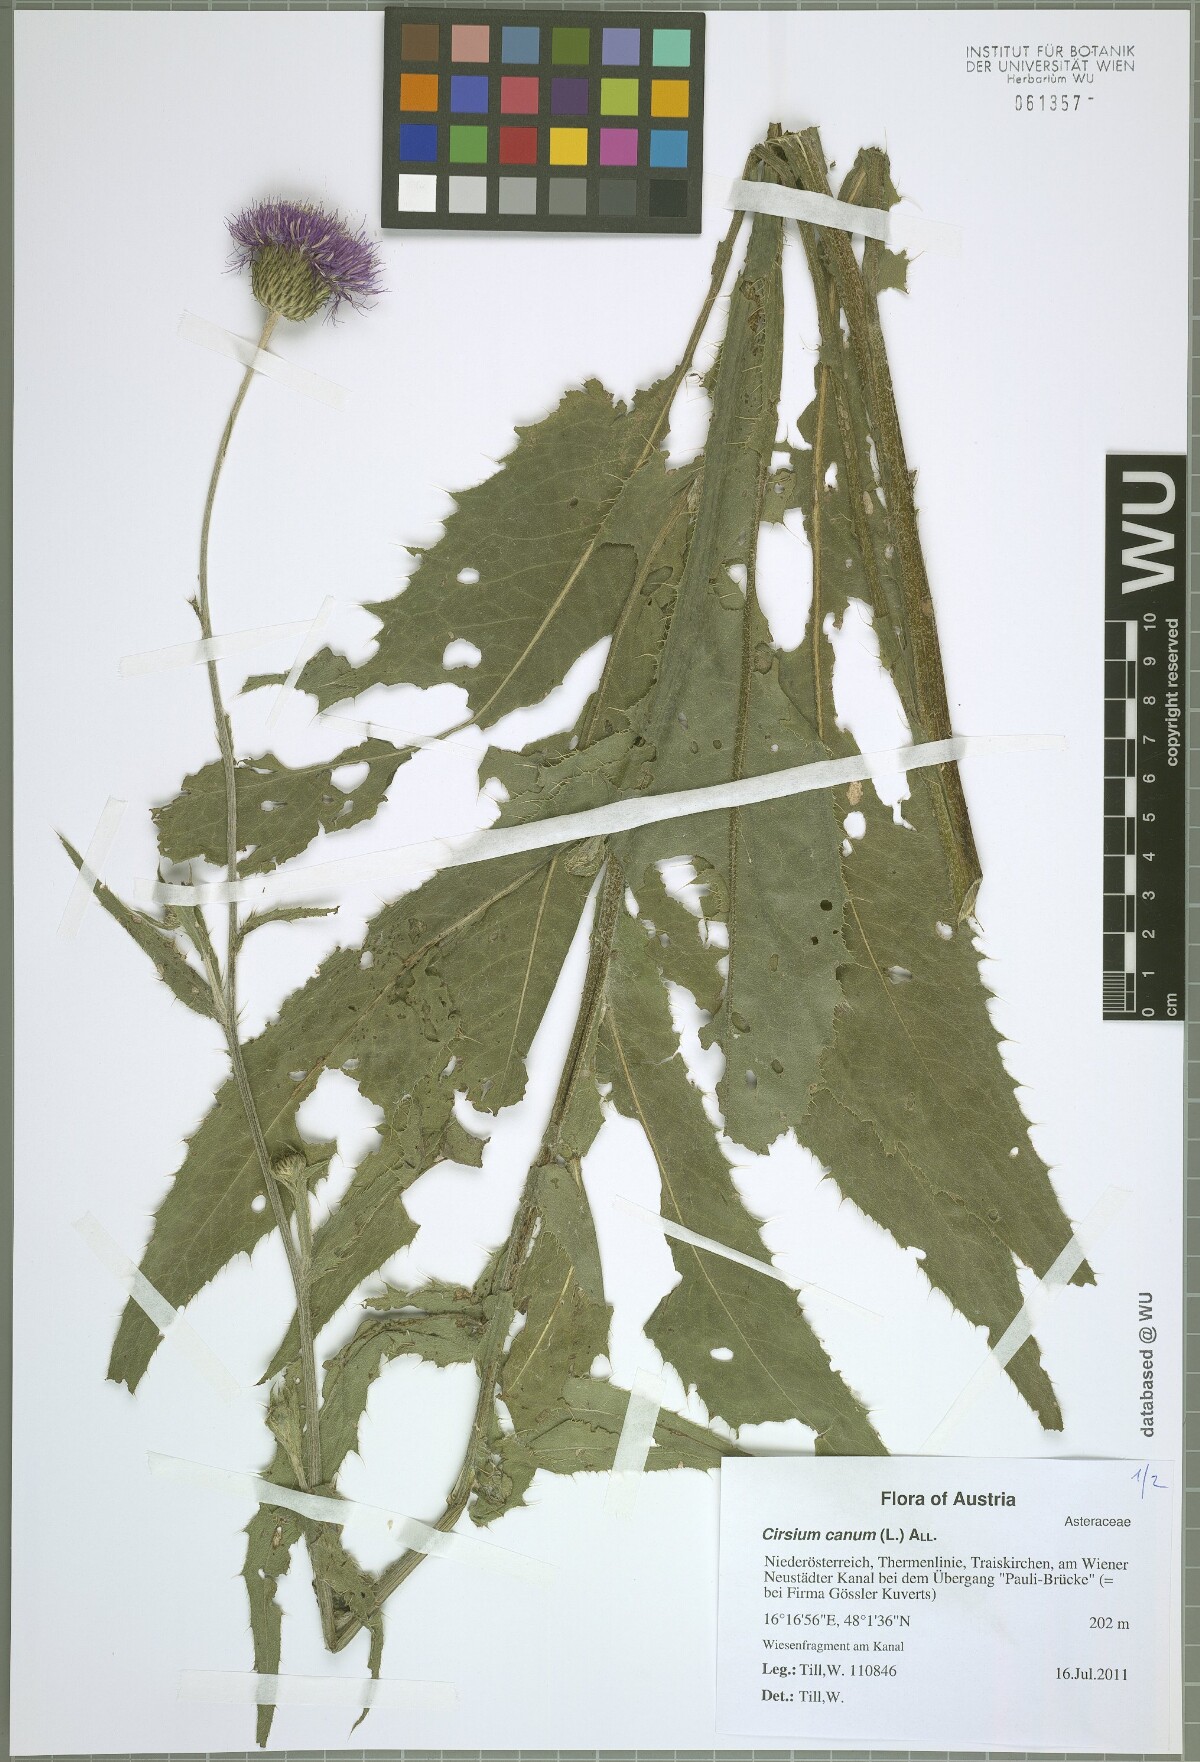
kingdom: Plantae
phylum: Tracheophyta
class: Magnoliopsida
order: Asterales
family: Asteraceae
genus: Cirsium
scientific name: Cirsium canum
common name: Queen anne's thistle
